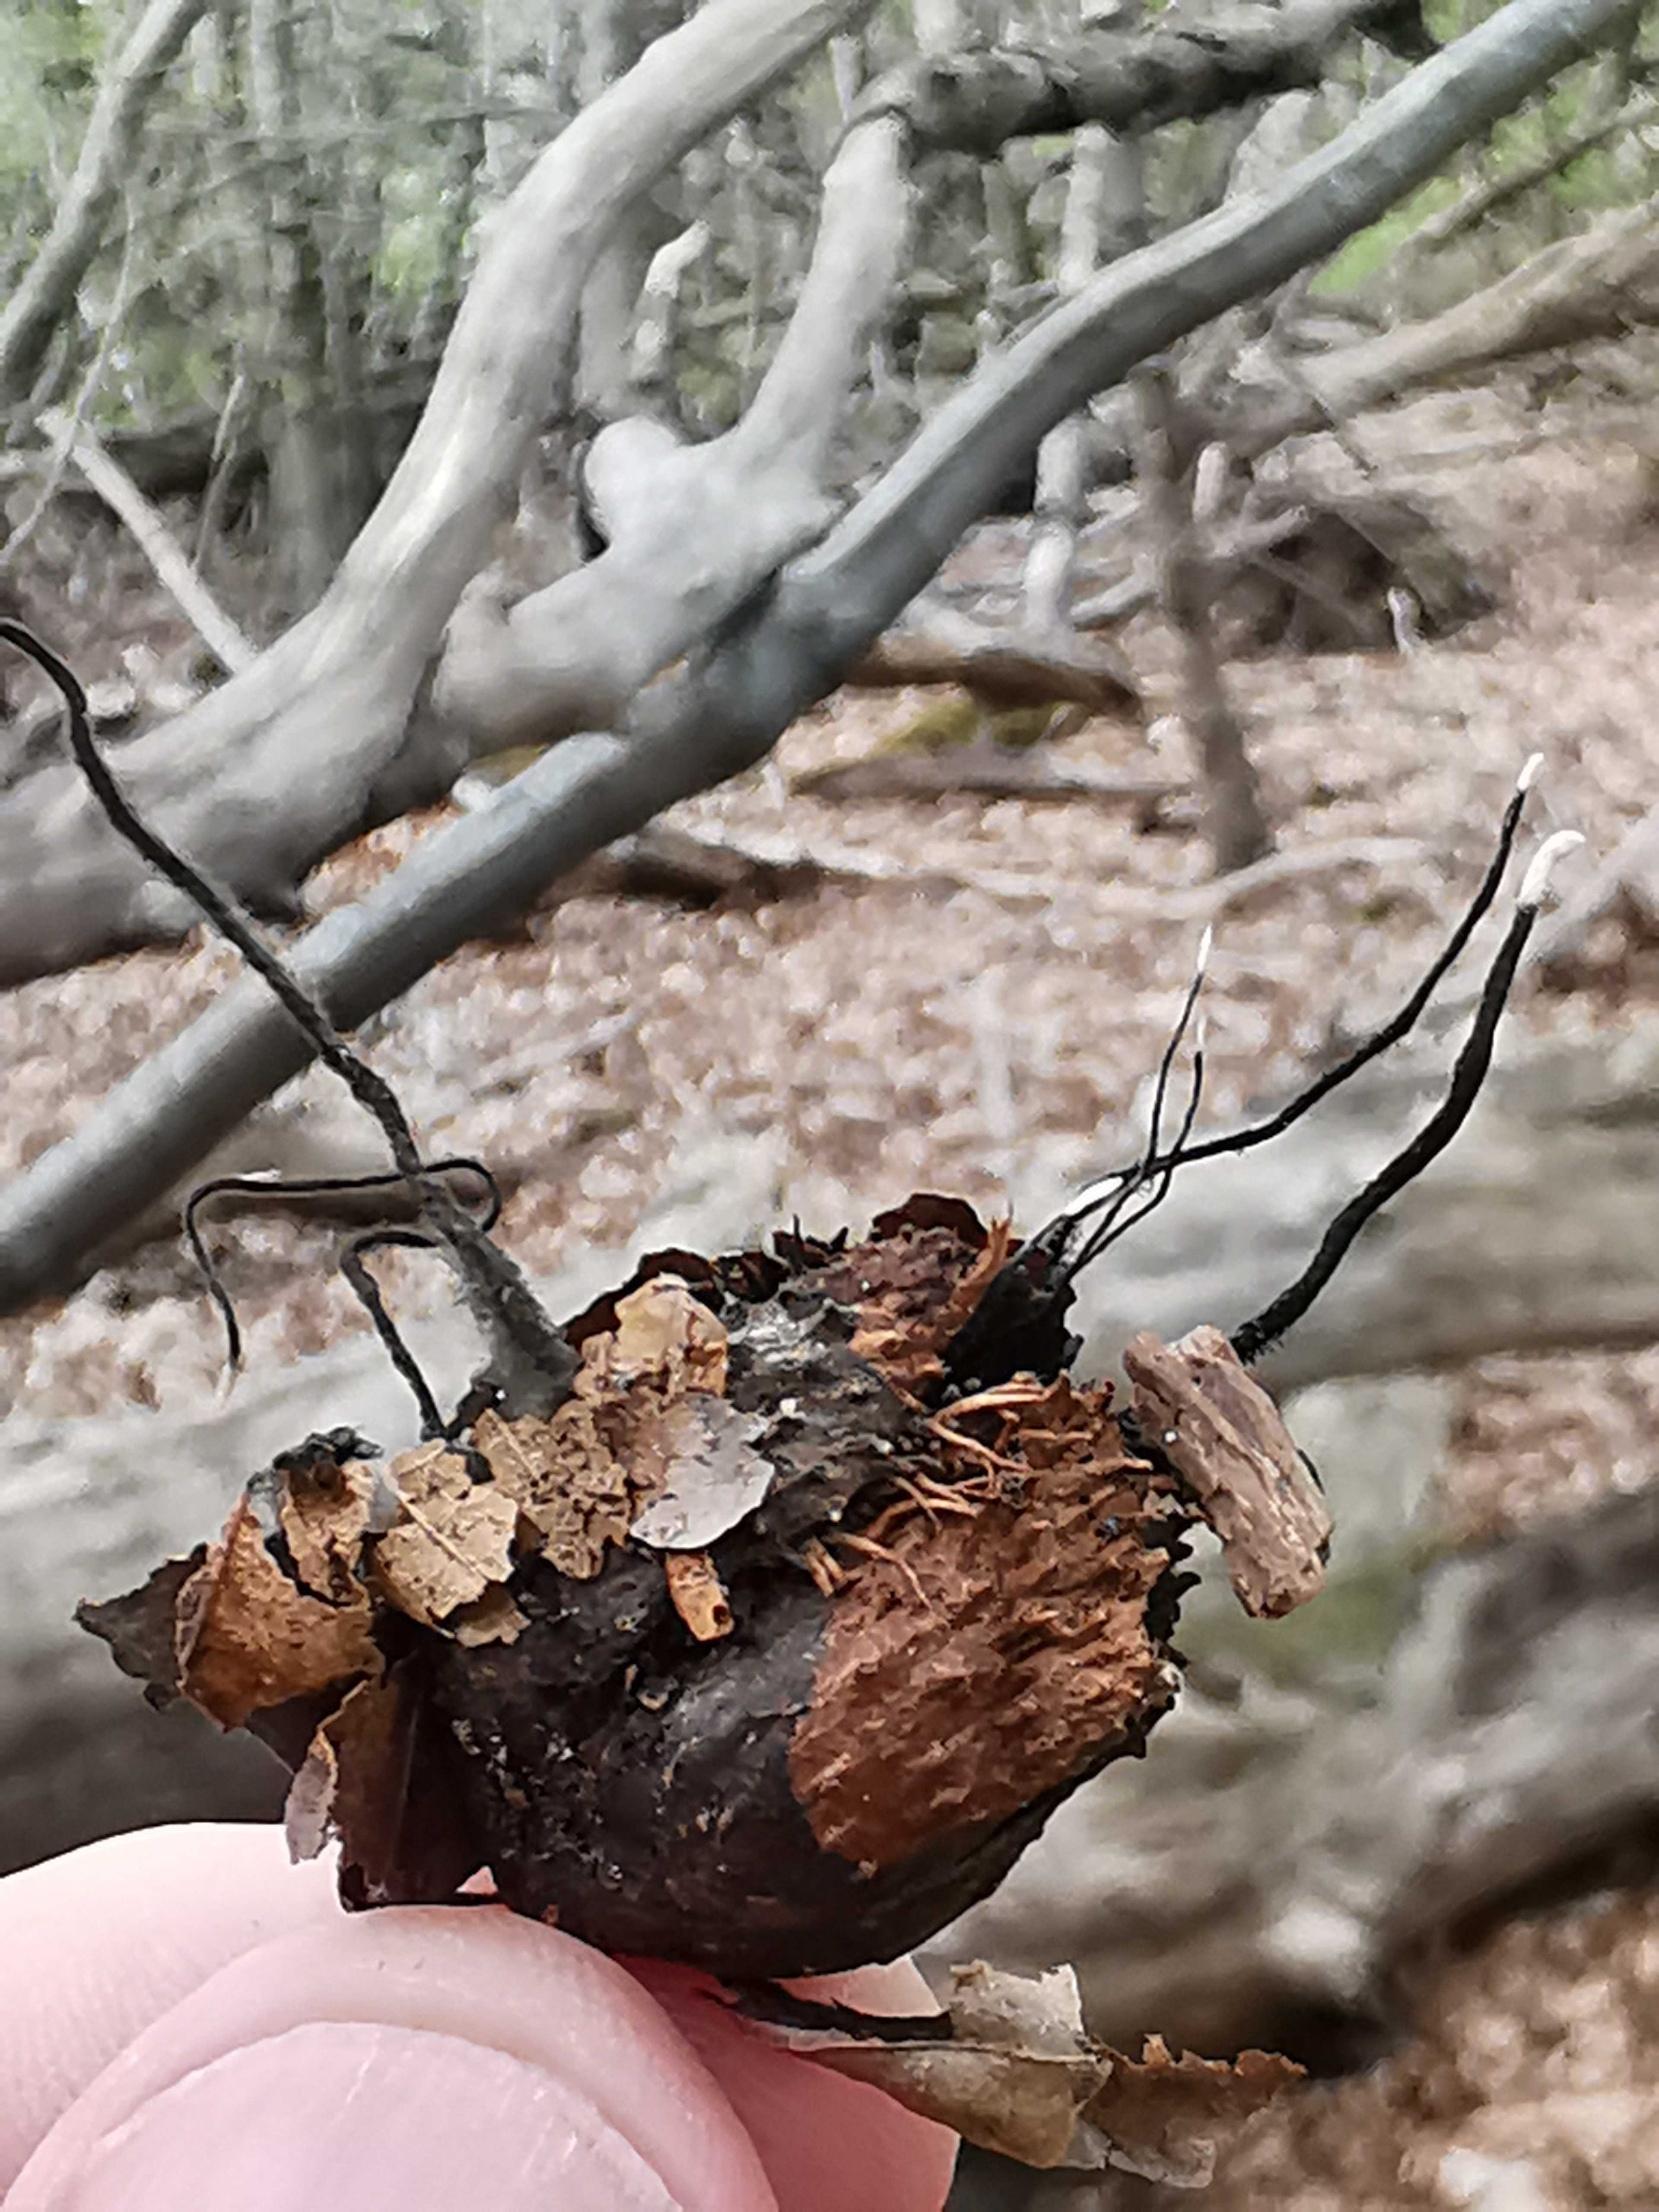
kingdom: Fungi
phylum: Ascomycota
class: Sordariomycetes
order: Xylariales
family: Xylariaceae
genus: Xylaria
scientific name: Xylaria carpophila
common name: bogskål-stødsvamp
